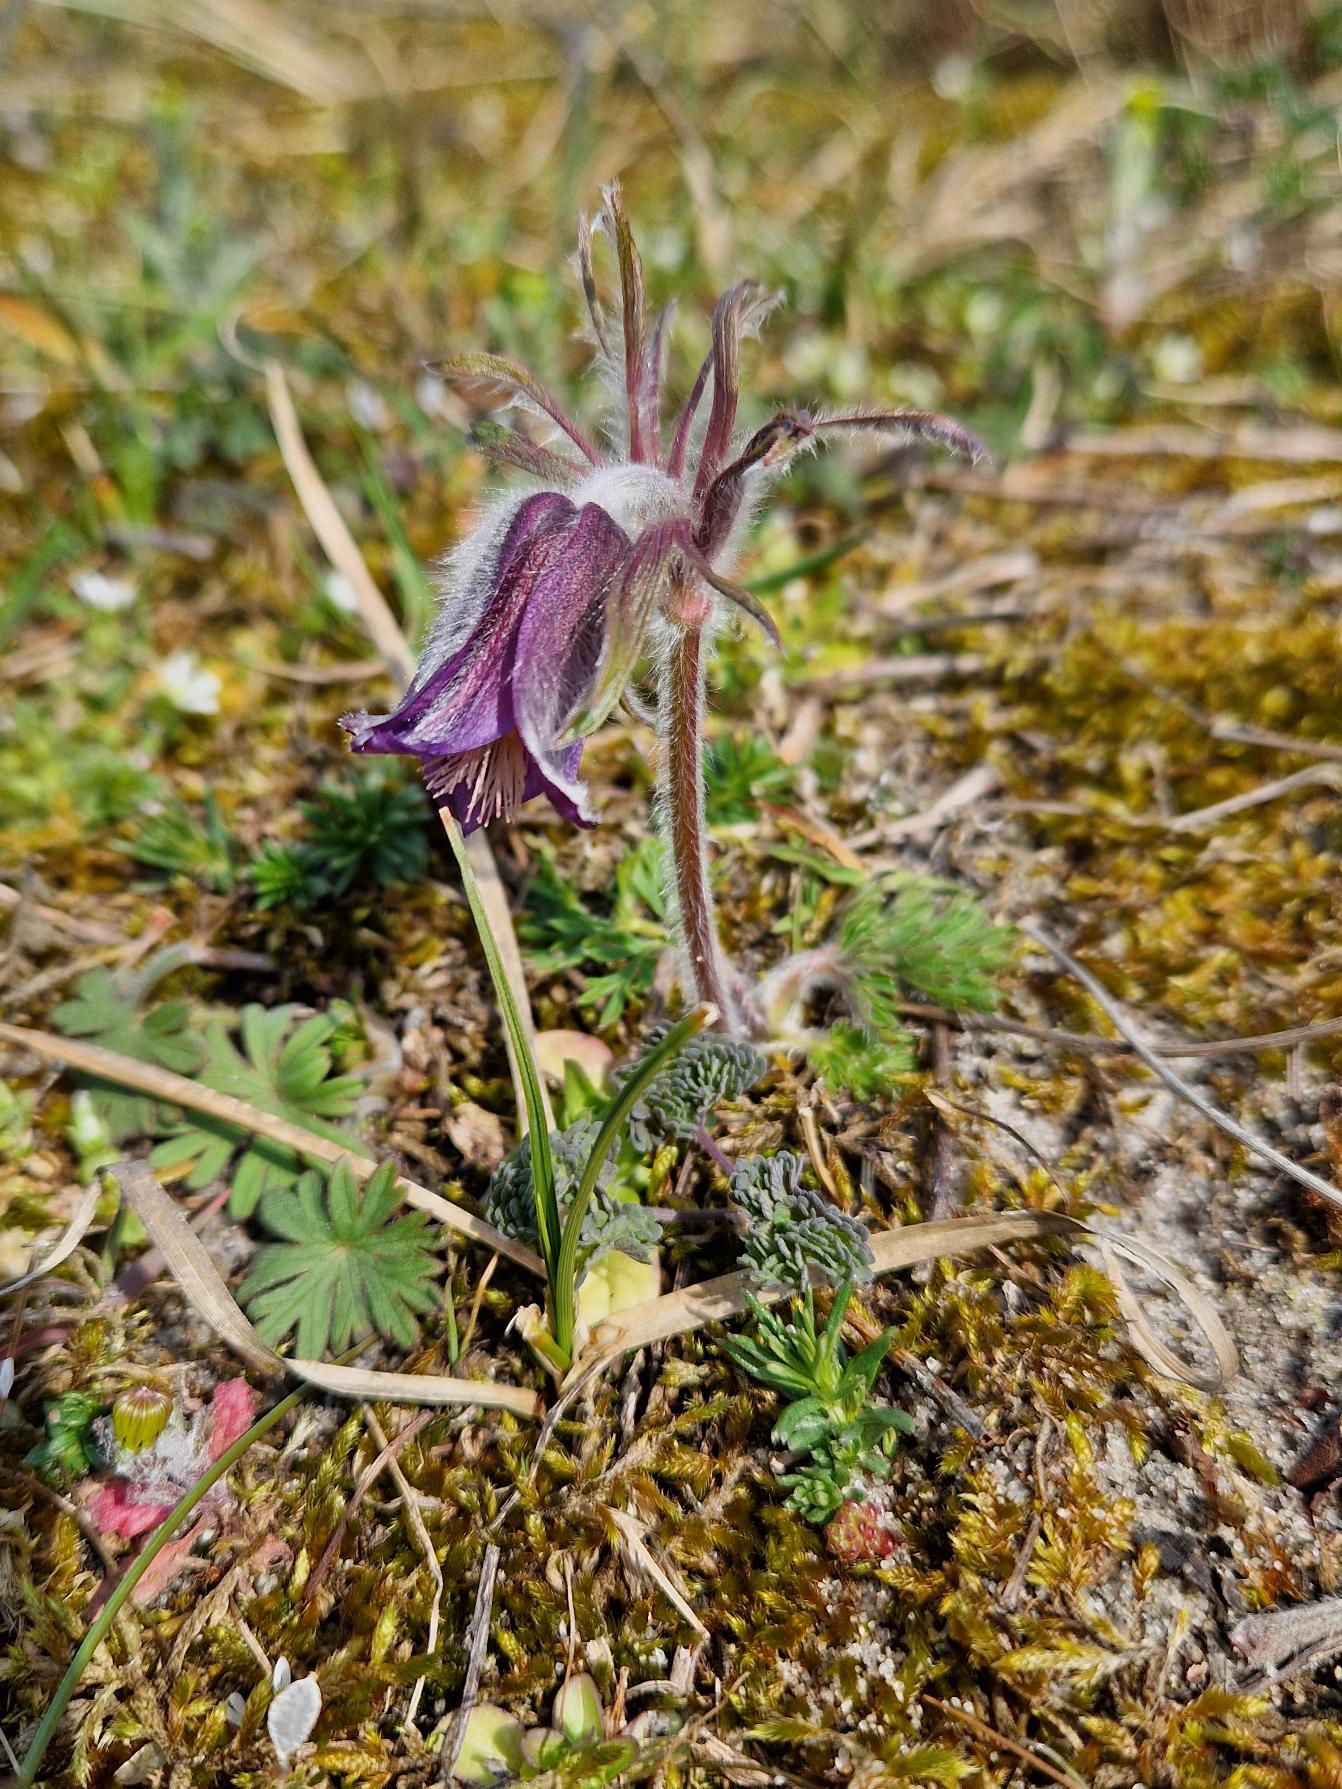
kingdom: Plantae
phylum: Tracheophyta
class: Magnoliopsida
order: Ranunculales
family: Ranunculaceae
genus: Pulsatilla
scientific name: Pulsatilla pratensis
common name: Nikkende kobjælde
